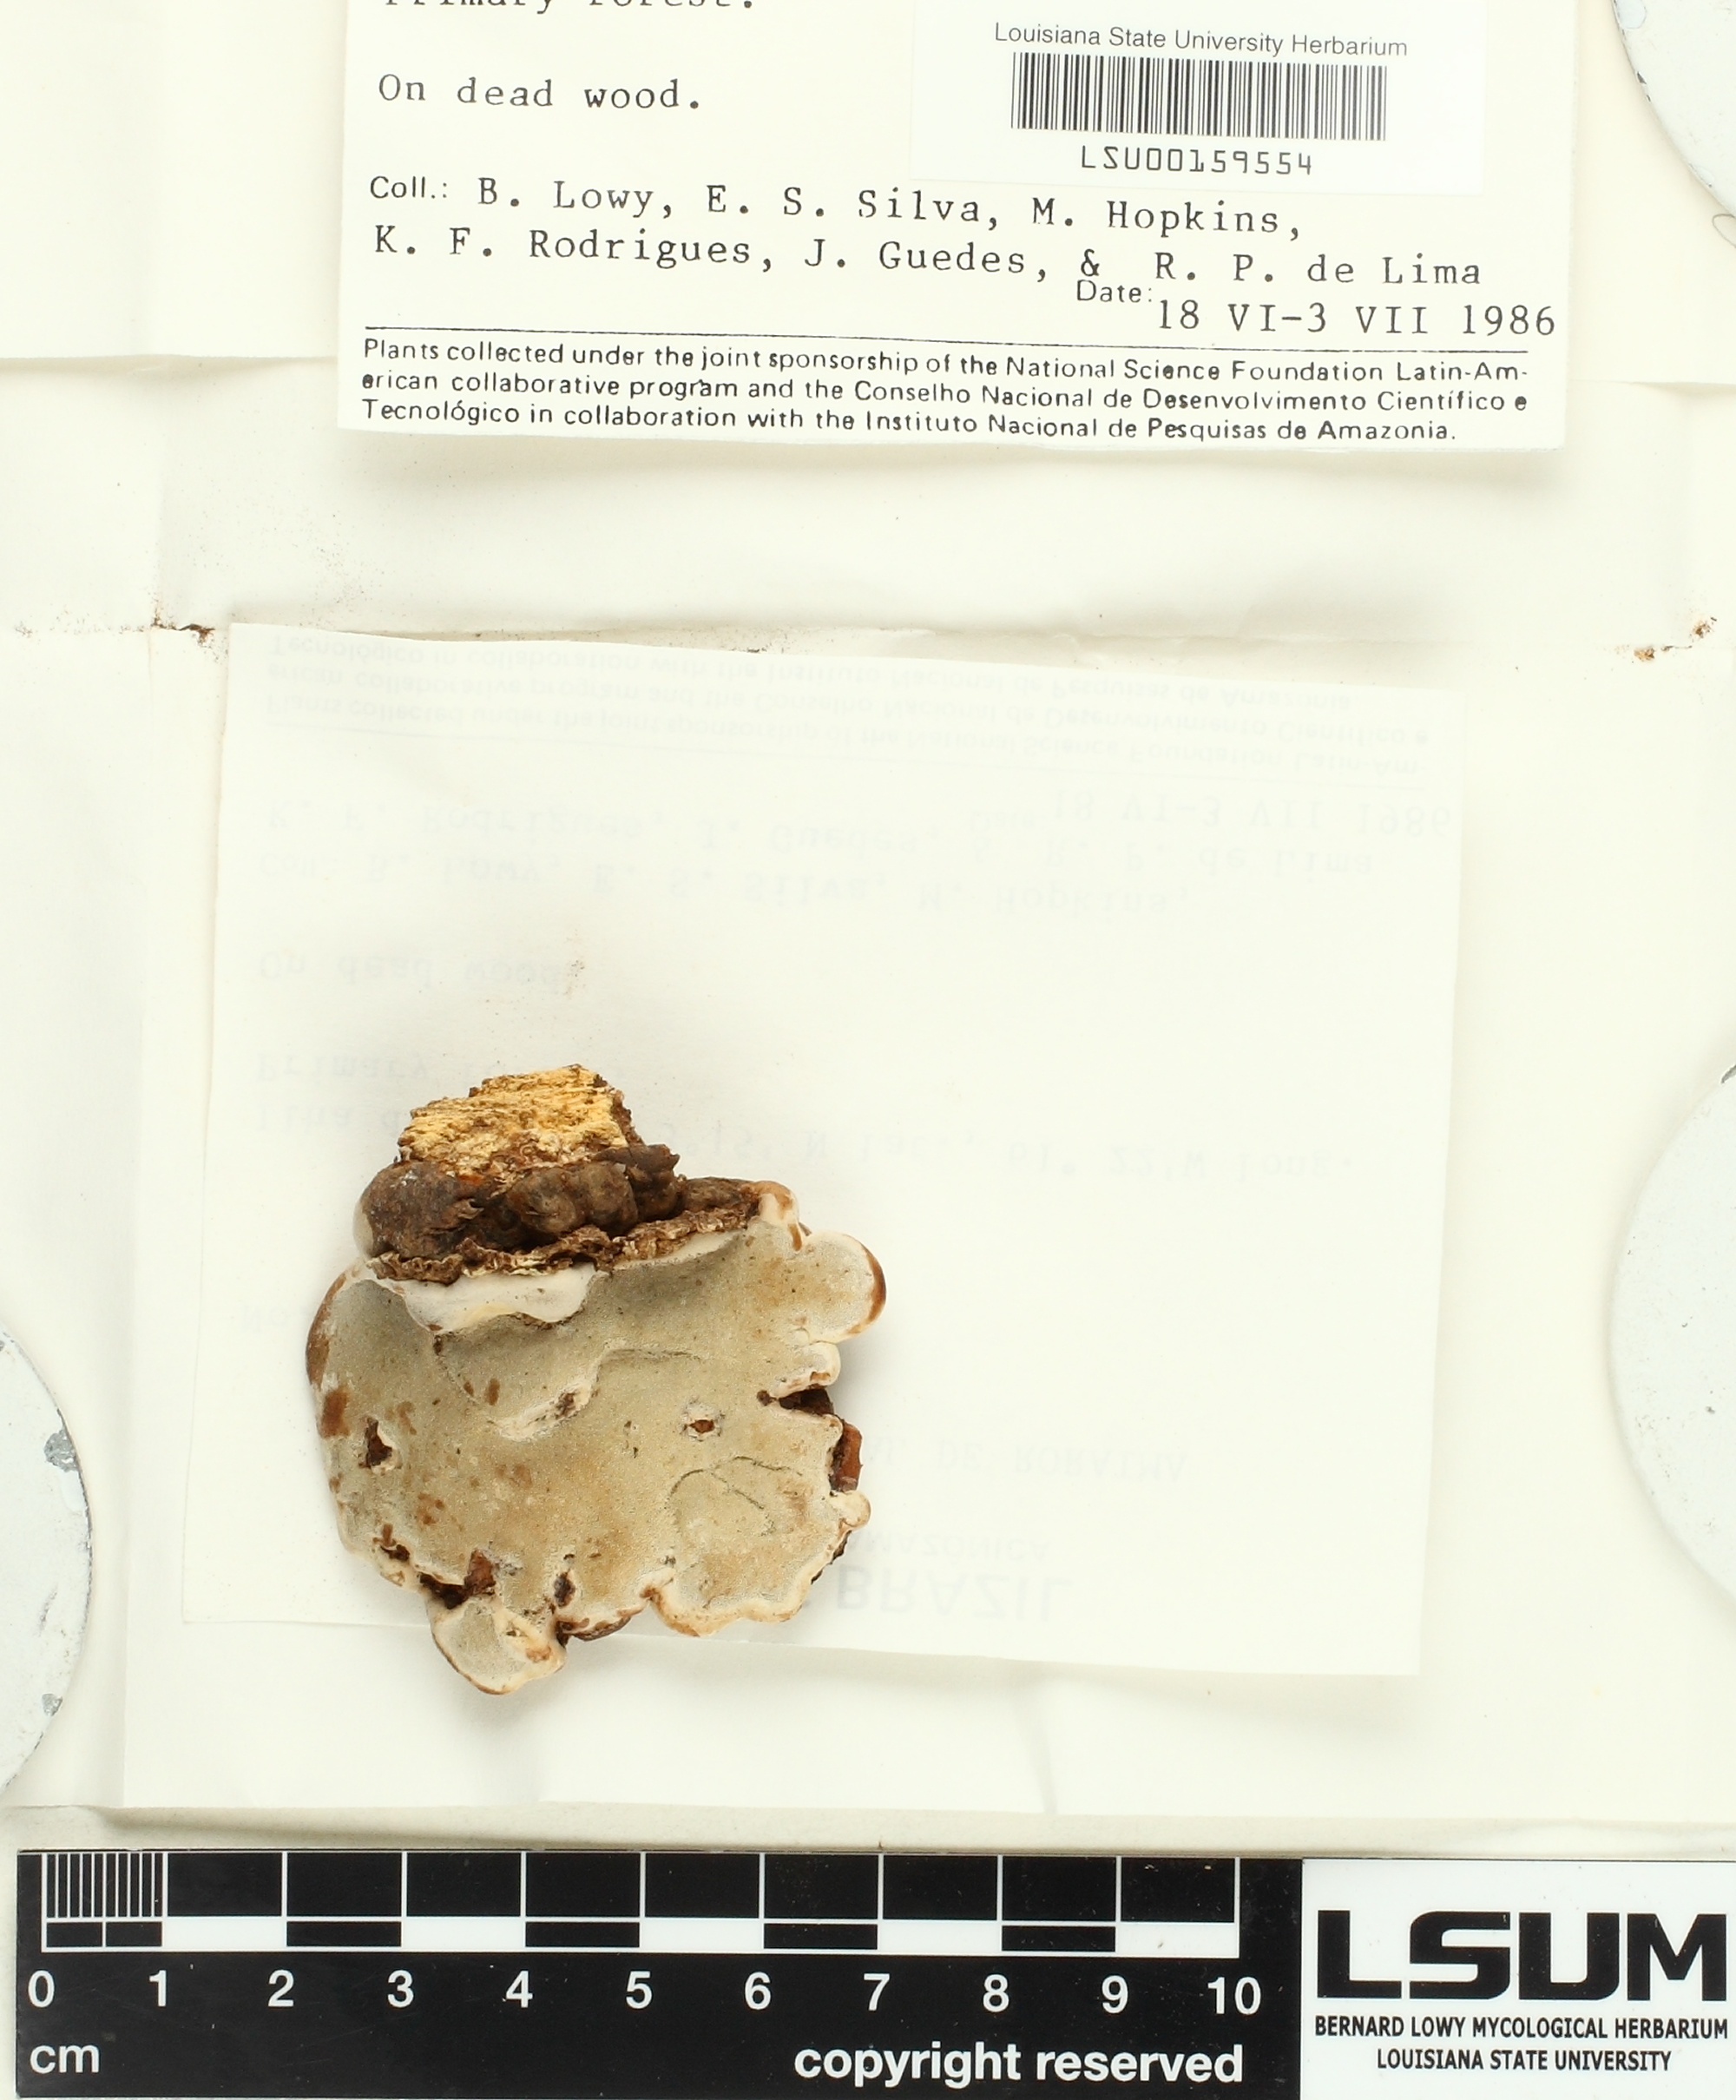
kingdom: Fungi
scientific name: Fungi
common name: Fungi
